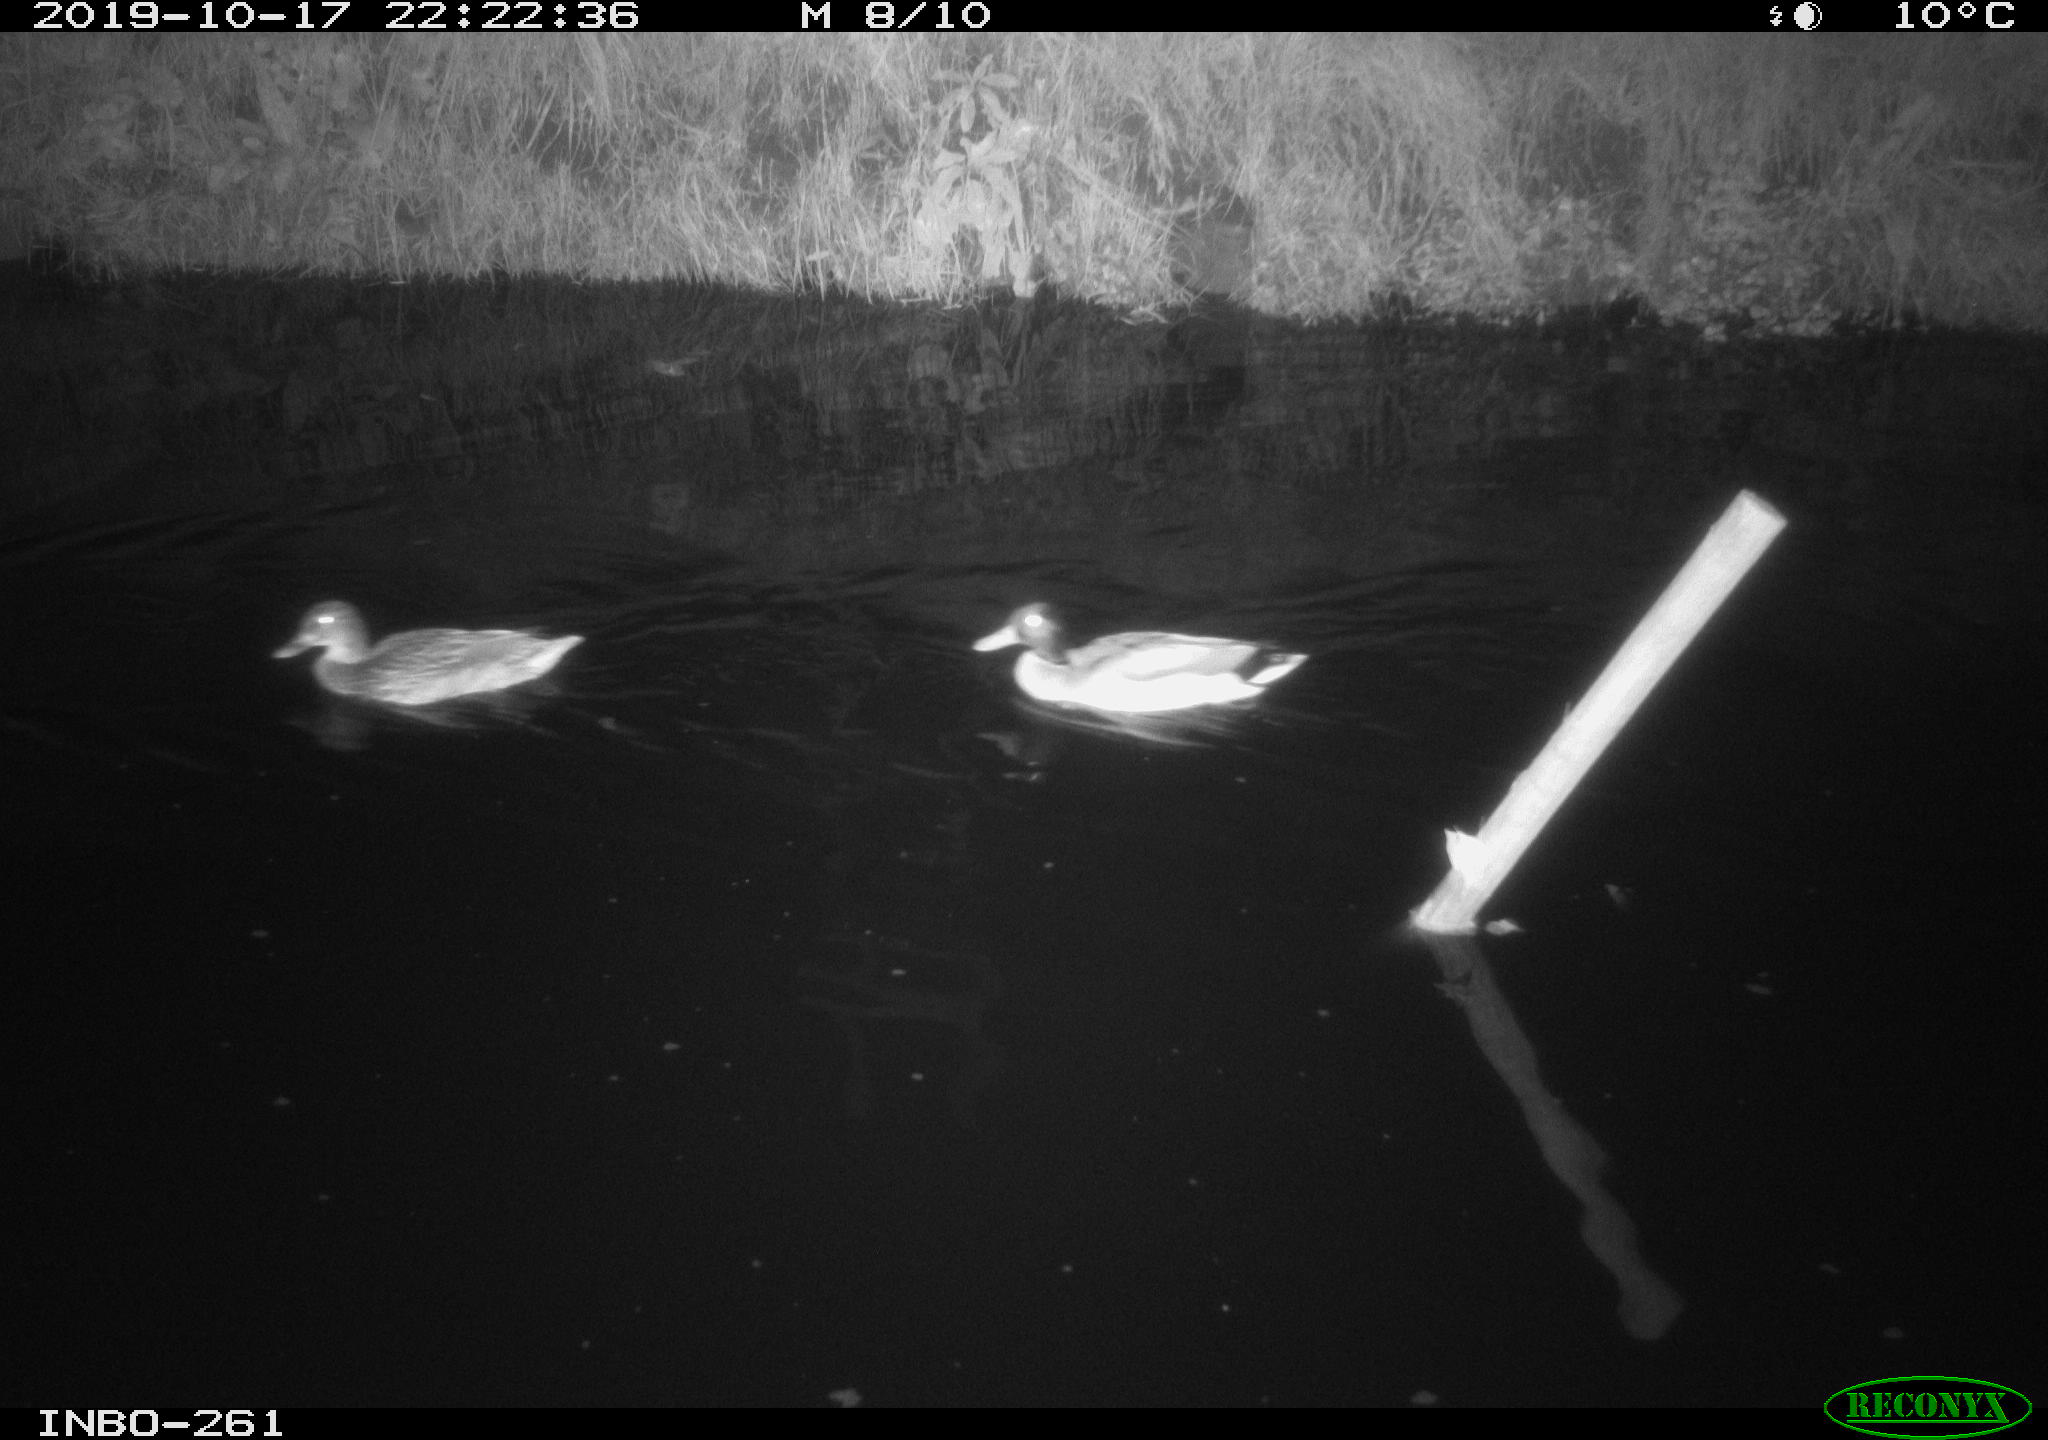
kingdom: Animalia
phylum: Chordata
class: Aves
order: Anseriformes
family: Anatidae
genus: Anas
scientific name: Anas platyrhynchos
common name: Mallard
